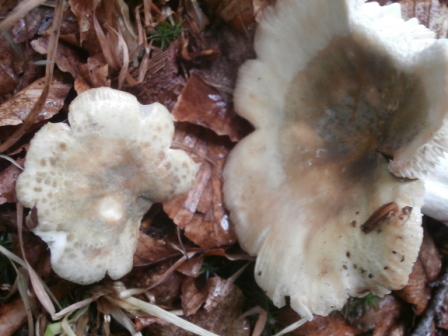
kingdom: Fungi
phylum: Basidiomycota
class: Agaricomycetes
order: Russulales
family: Russulaceae
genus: Russula
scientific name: Russula virescens
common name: spanskgrøn skørhat
